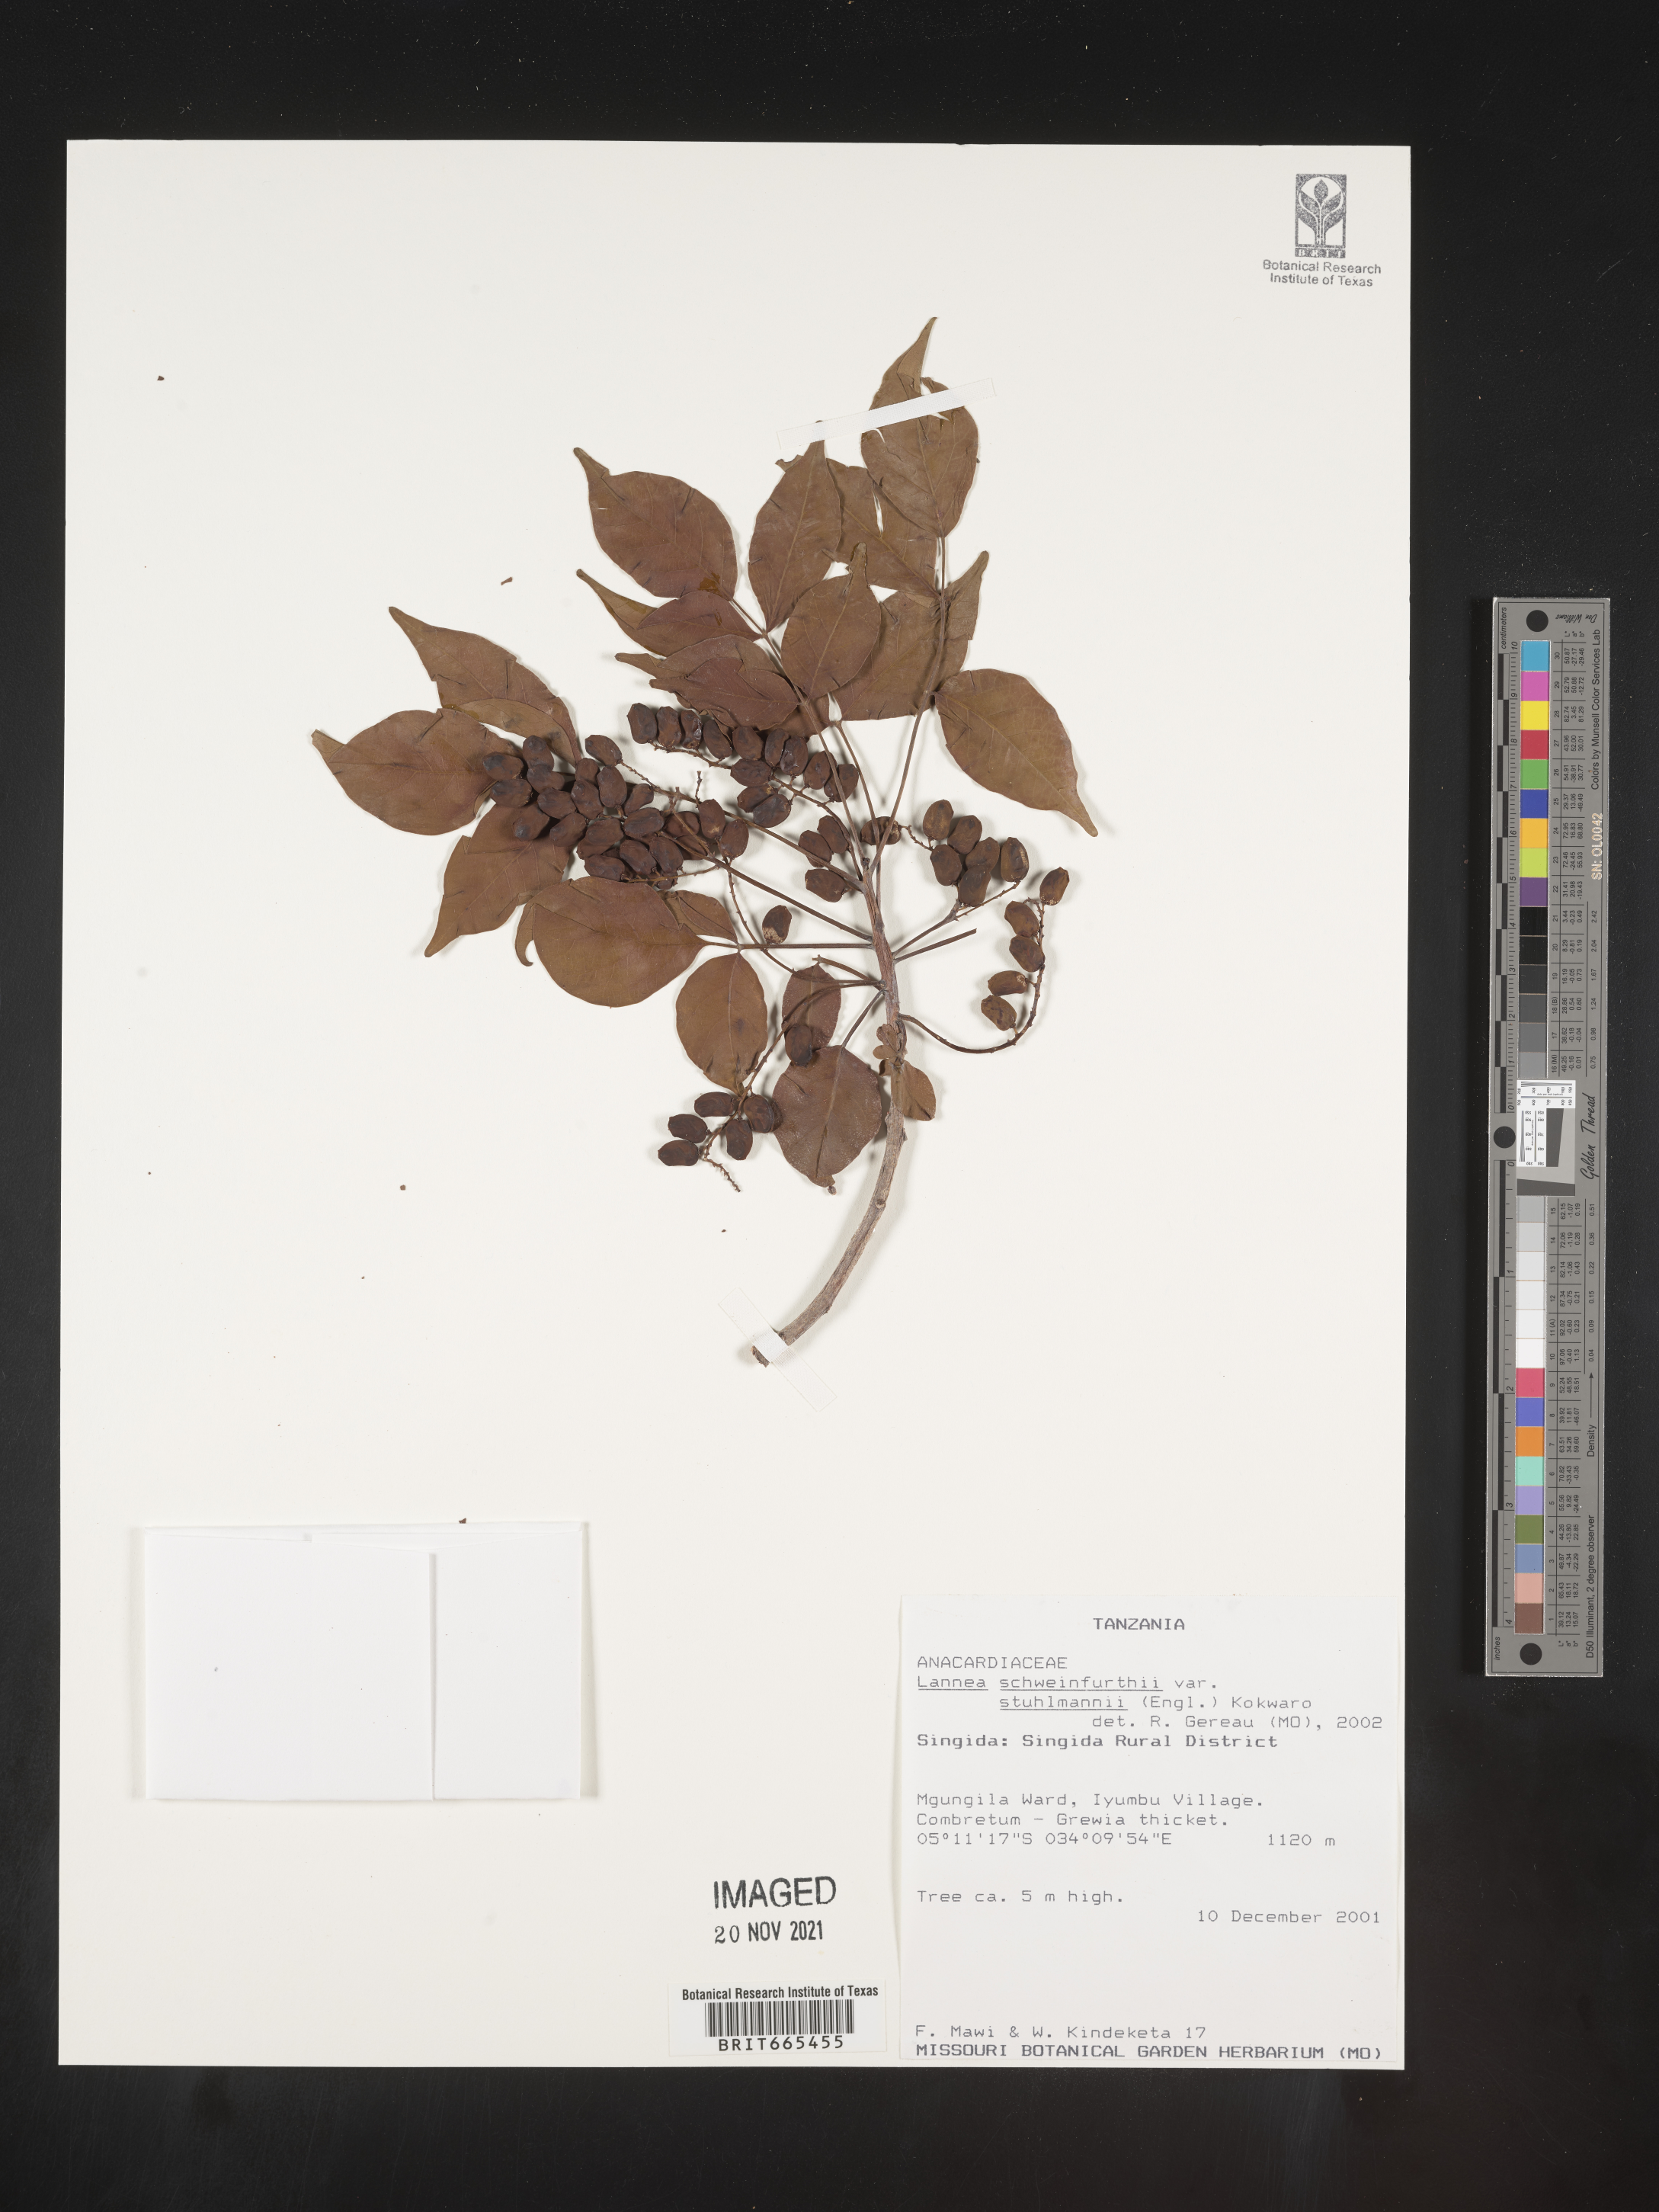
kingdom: Plantae
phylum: Tracheophyta
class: Magnoliopsida
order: Sapindales
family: Anacardiaceae
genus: Lannea
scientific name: Lannea schweinfurthii
